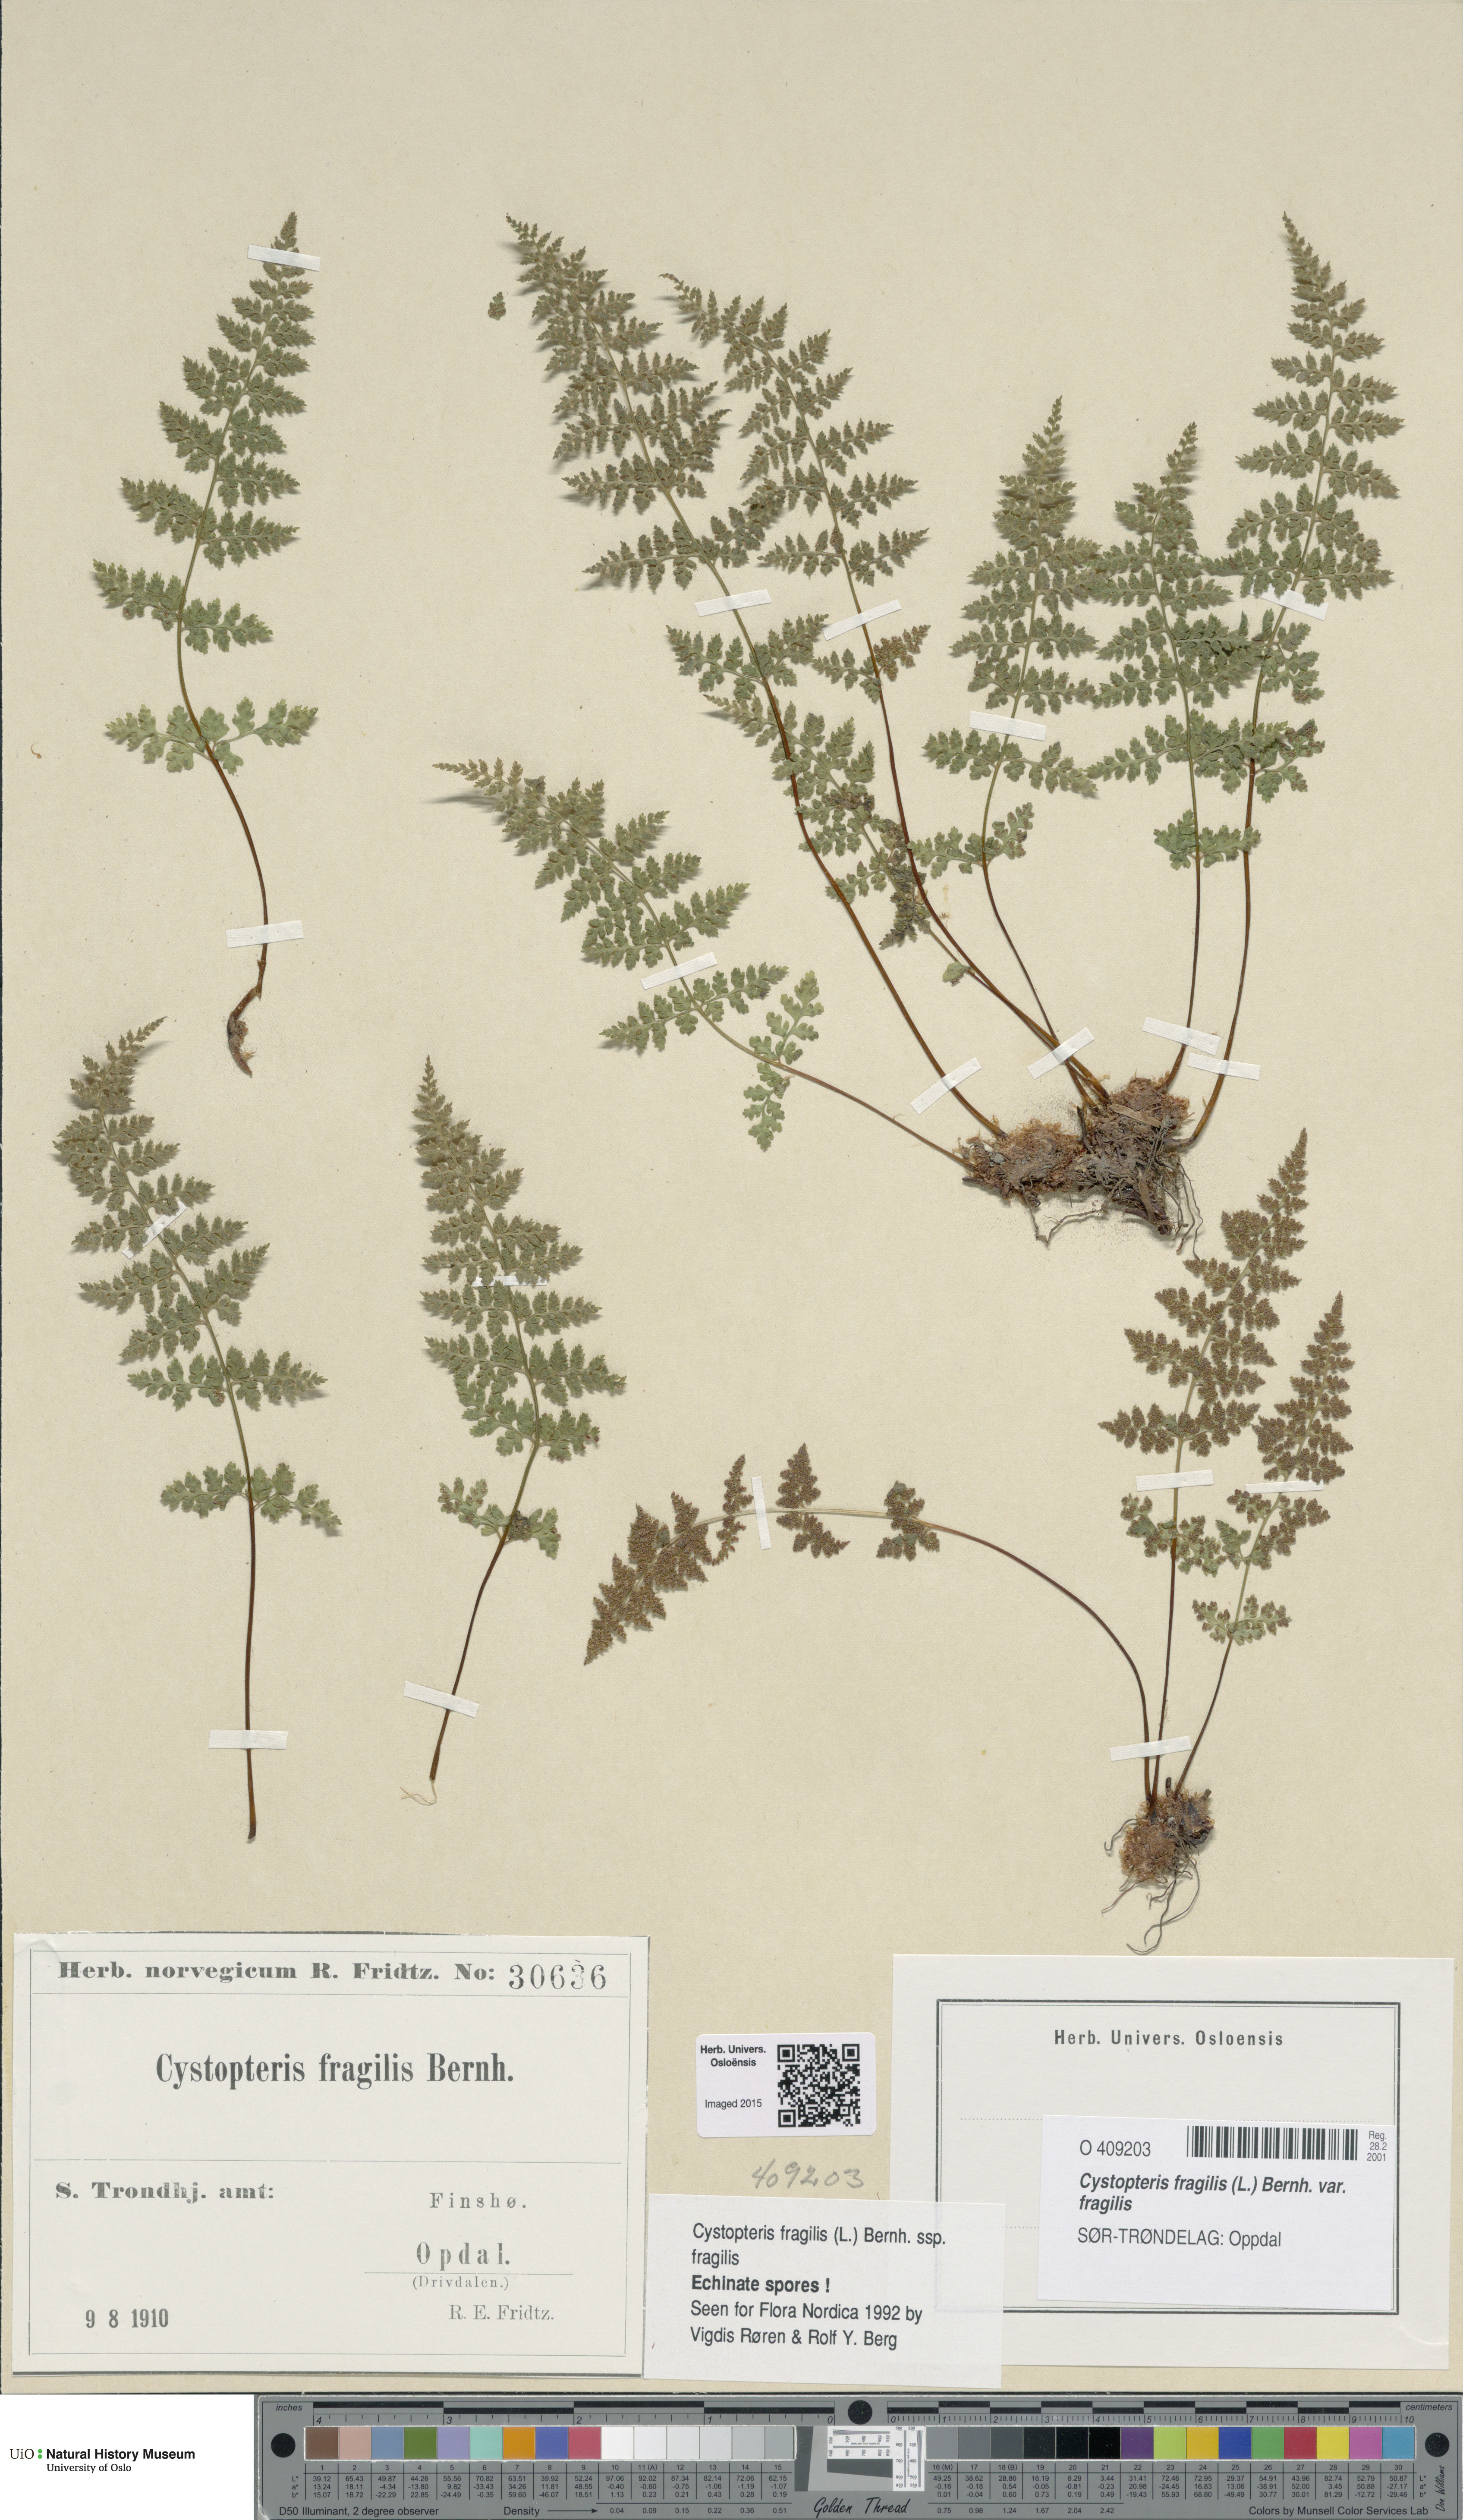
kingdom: Plantae
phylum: Tracheophyta
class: Polypodiopsida
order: Polypodiales
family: Cystopteridaceae
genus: Cystopteris
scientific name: Cystopteris fragilis
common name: Brittle bladder fern
